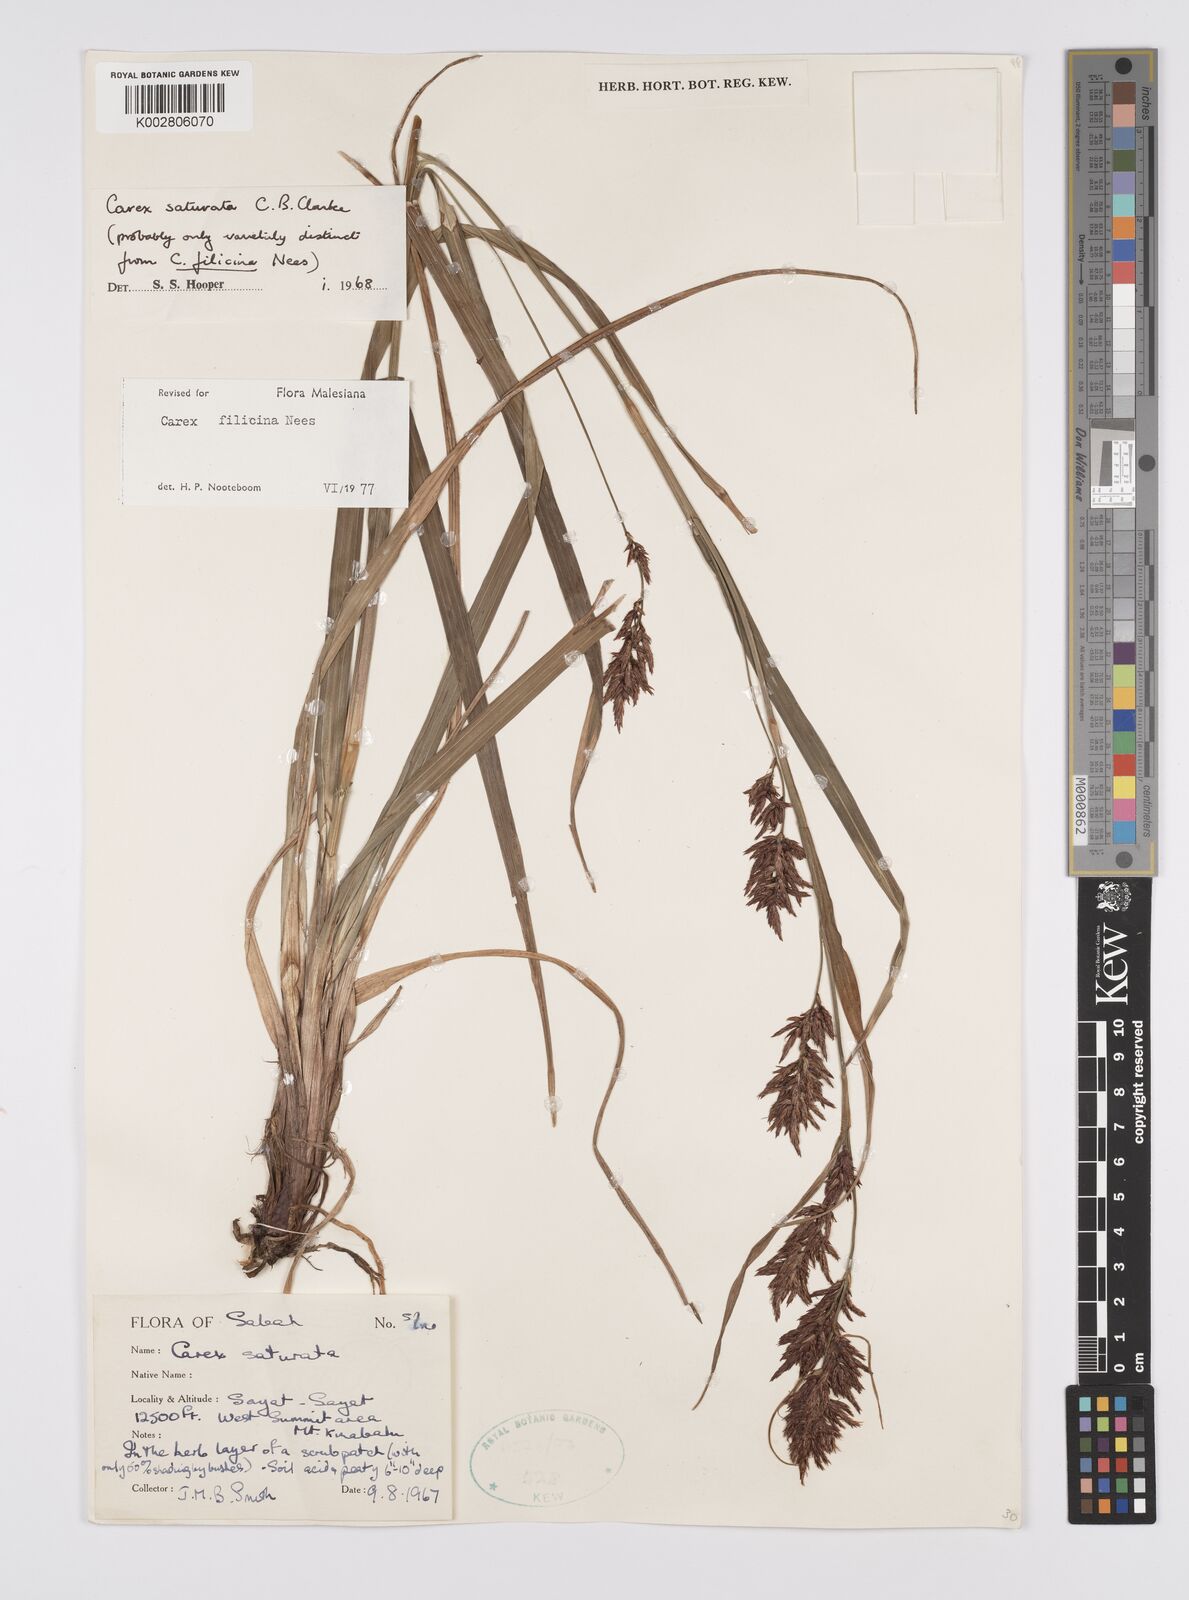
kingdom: Plantae
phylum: Tracheophyta
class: Liliopsida
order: Poales
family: Cyperaceae
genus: Carex
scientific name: Carex filicina
